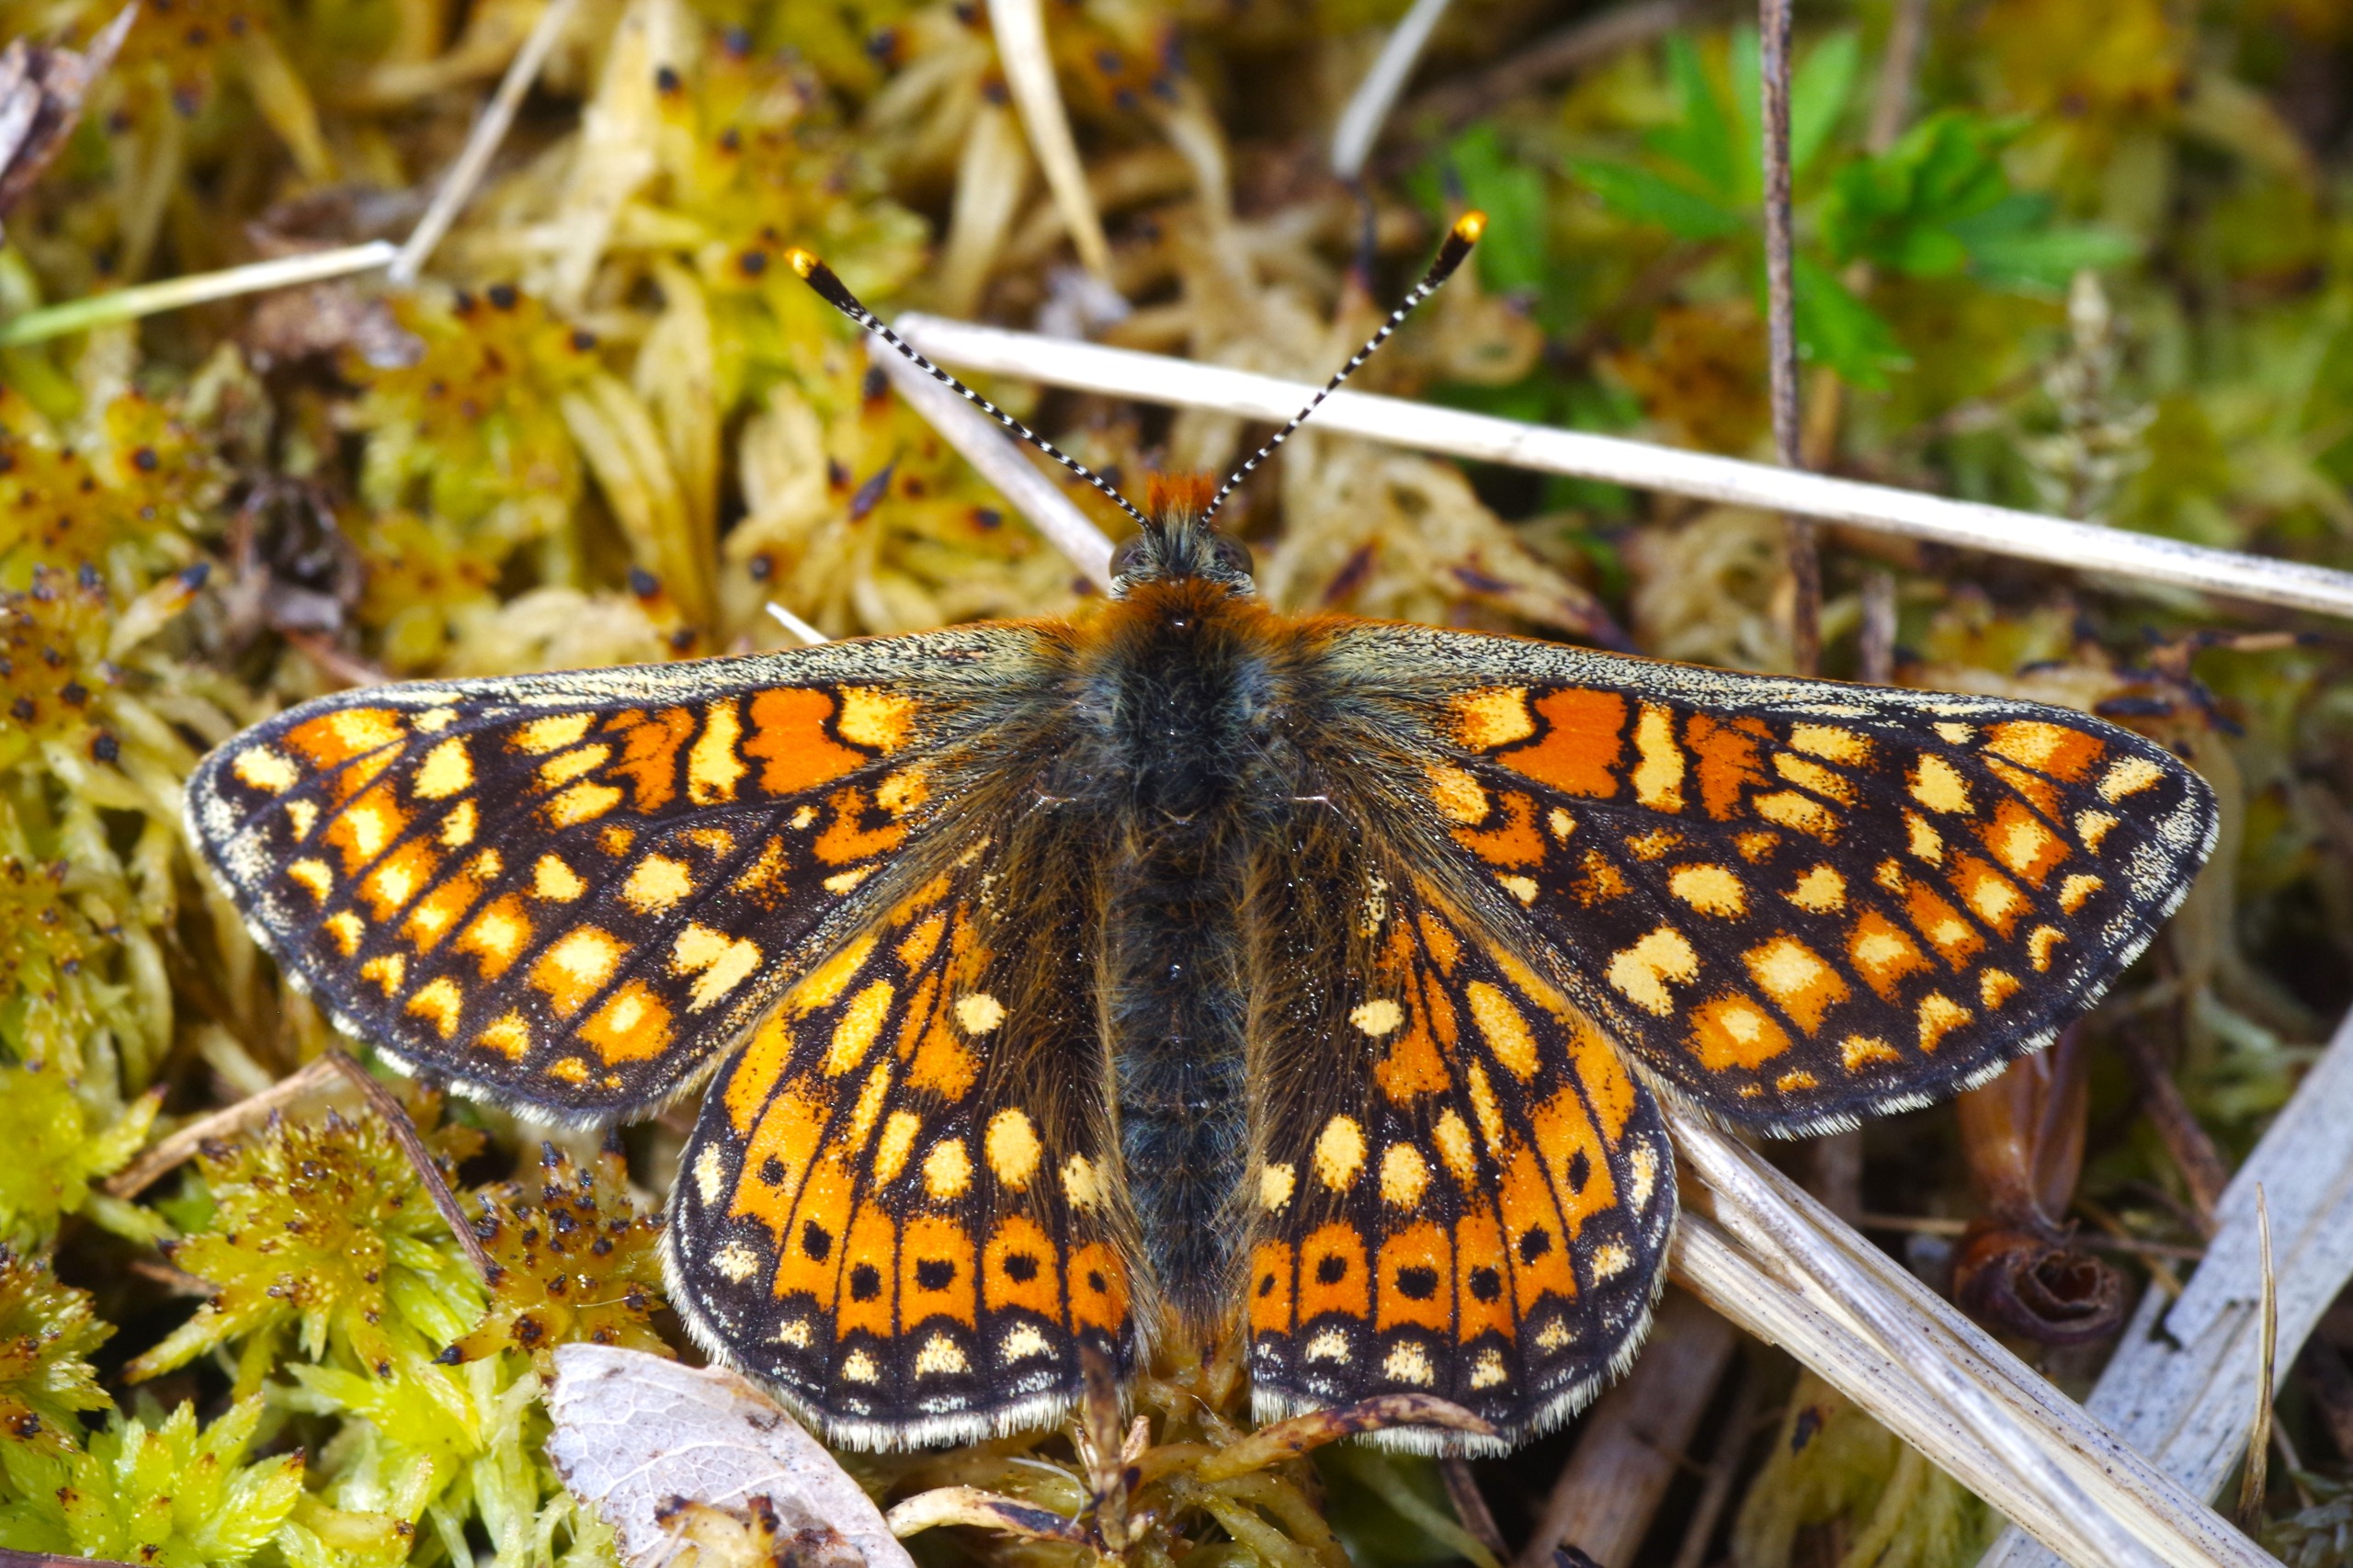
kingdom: Animalia
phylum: Arthropoda
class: Insecta
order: Lepidoptera
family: Nymphalidae
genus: Euphydryas
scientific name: Euphydryas aurinia
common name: Hedepletvinge
